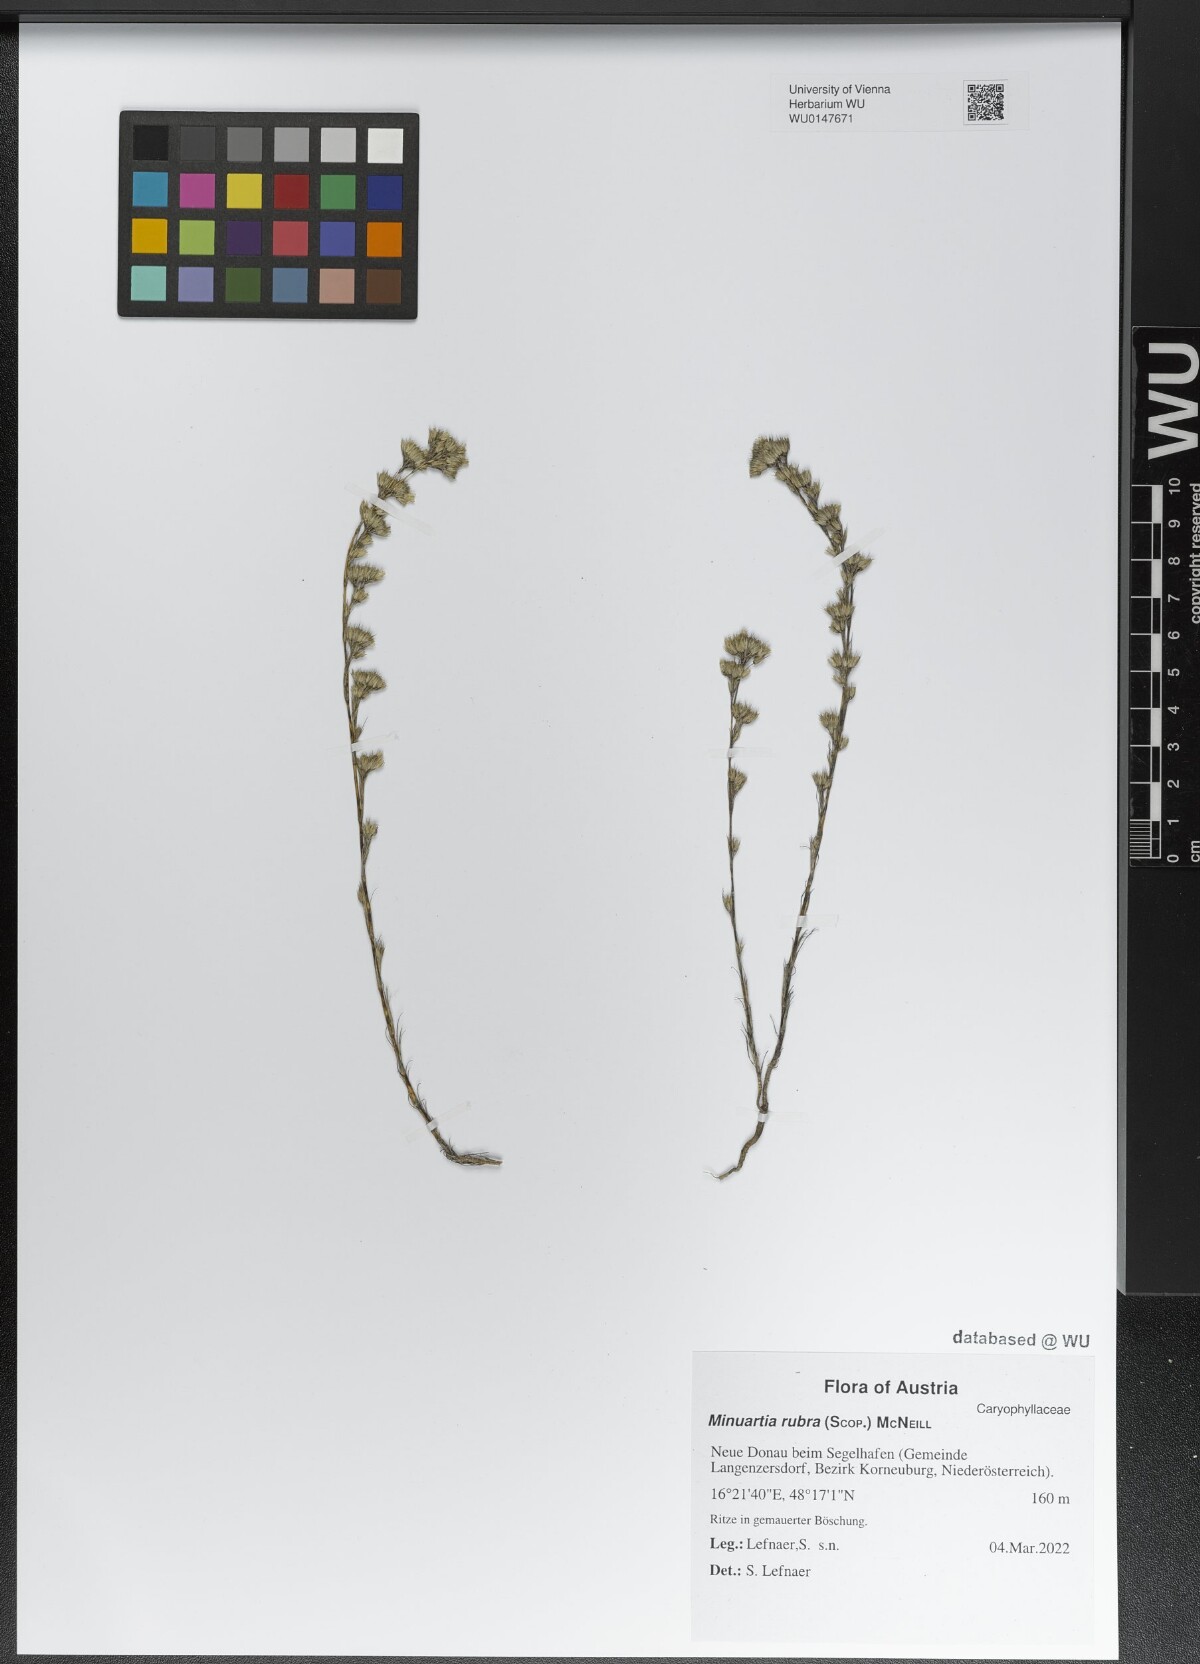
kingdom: Plantae
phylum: Tracheophyta
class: Magnoliopsida
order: Caryophyllales
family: Caryophyllaceae
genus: Minuartia
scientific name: Minuartia mucronata
